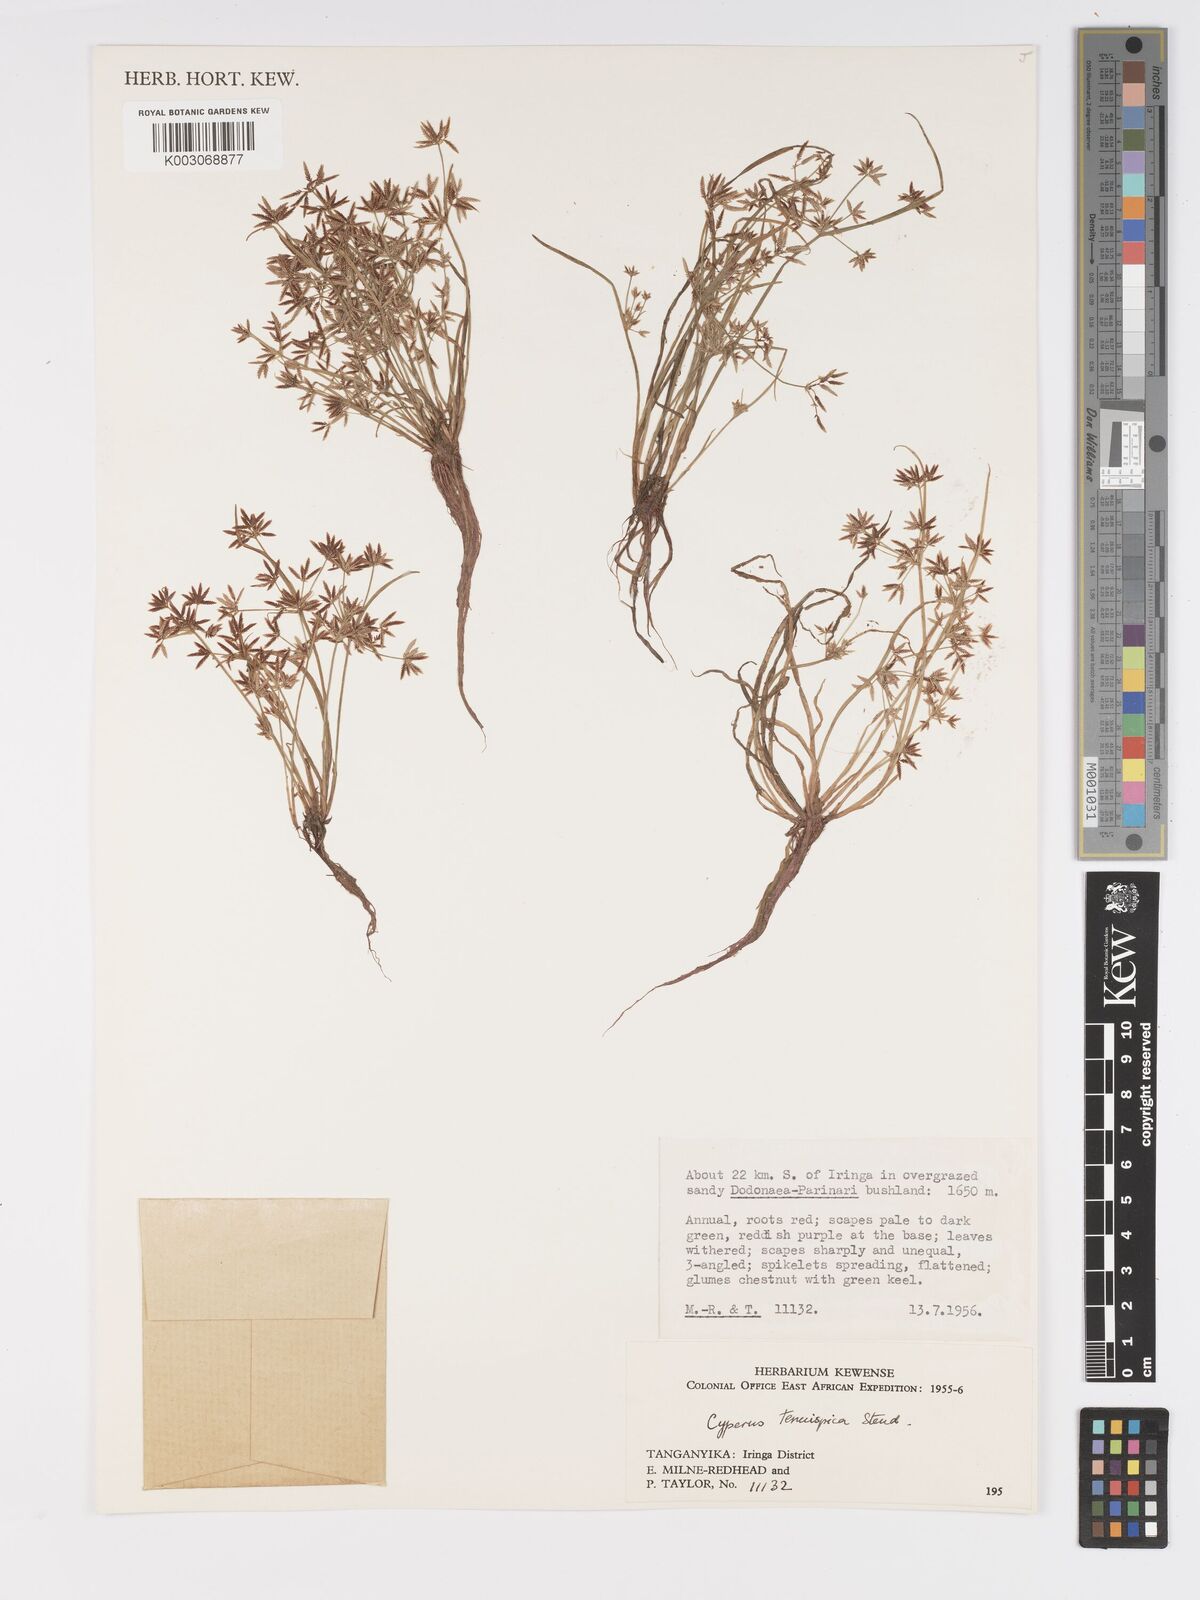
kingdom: Plantae
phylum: Tracheophyta
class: Liliopsida
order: Poales
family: Cyperaceae
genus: Cyperus
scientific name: Cyperus tenuispica
